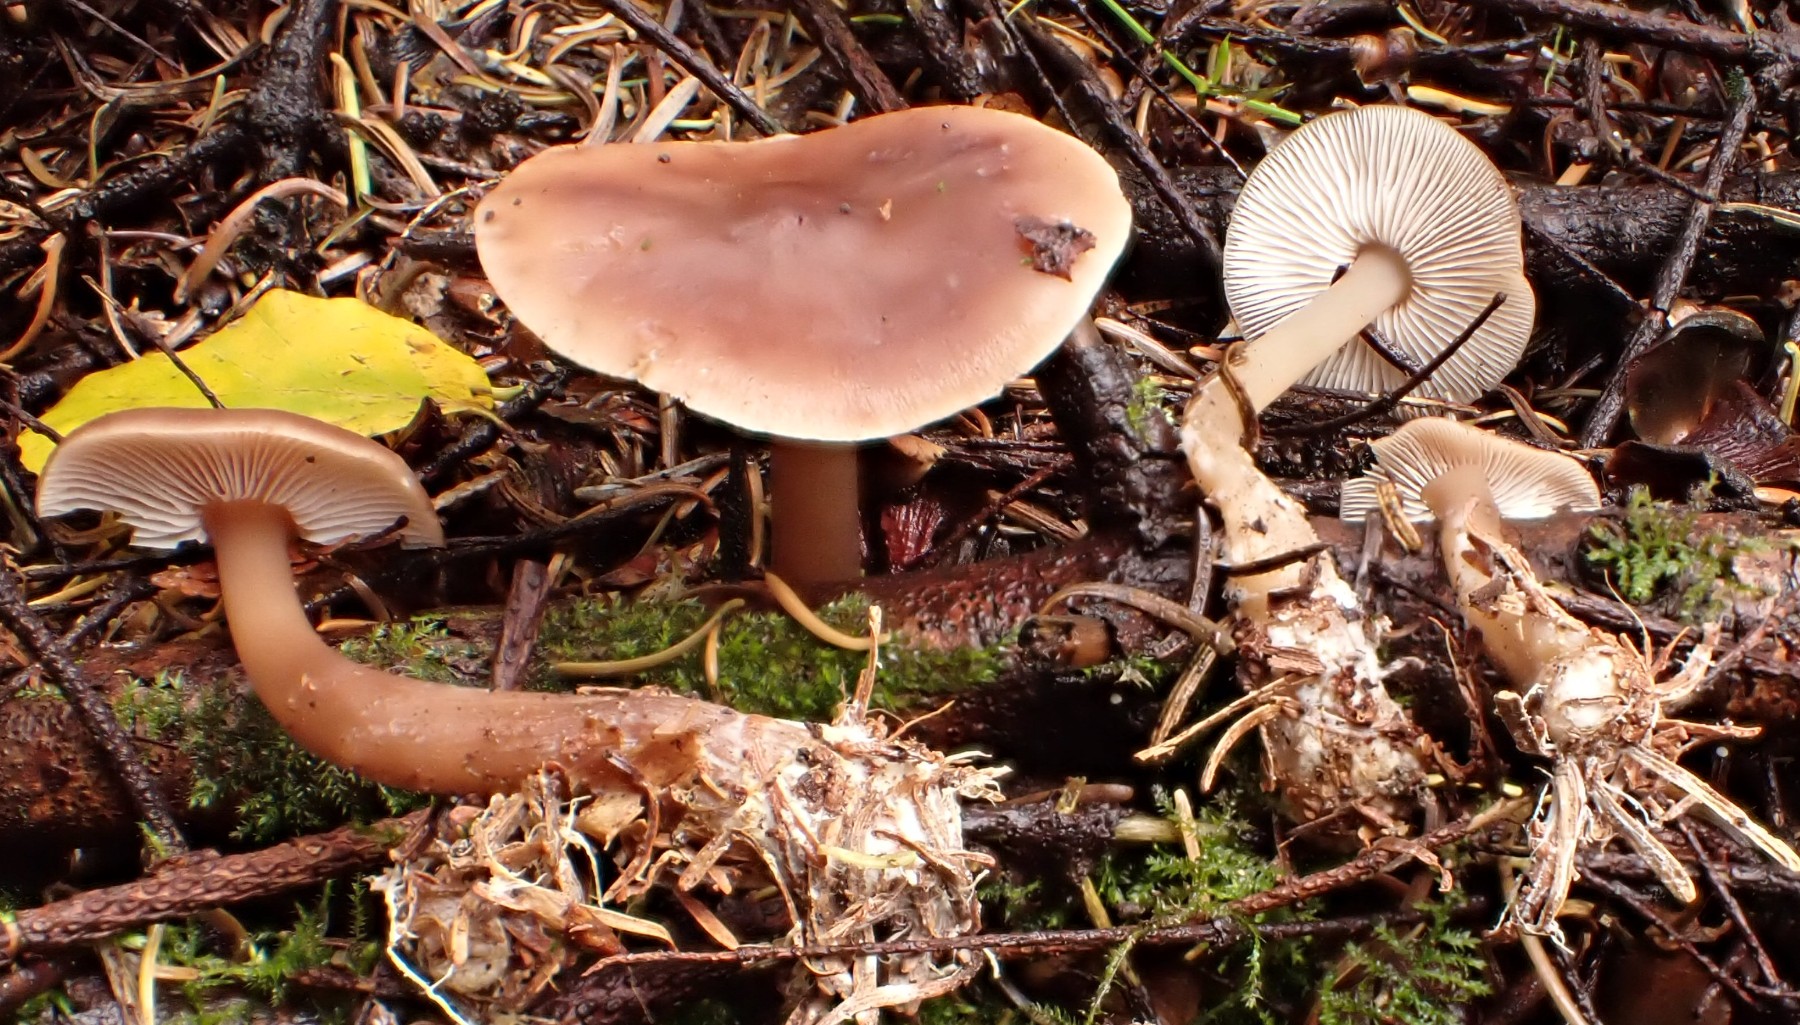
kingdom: Fungi
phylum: Basidiomycota
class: Agaricomycetes
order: Agaricales
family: Omphalotaceae
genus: Rhodocollybia
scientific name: Rhodocollybia butyracea
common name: keglestokket fladhat
